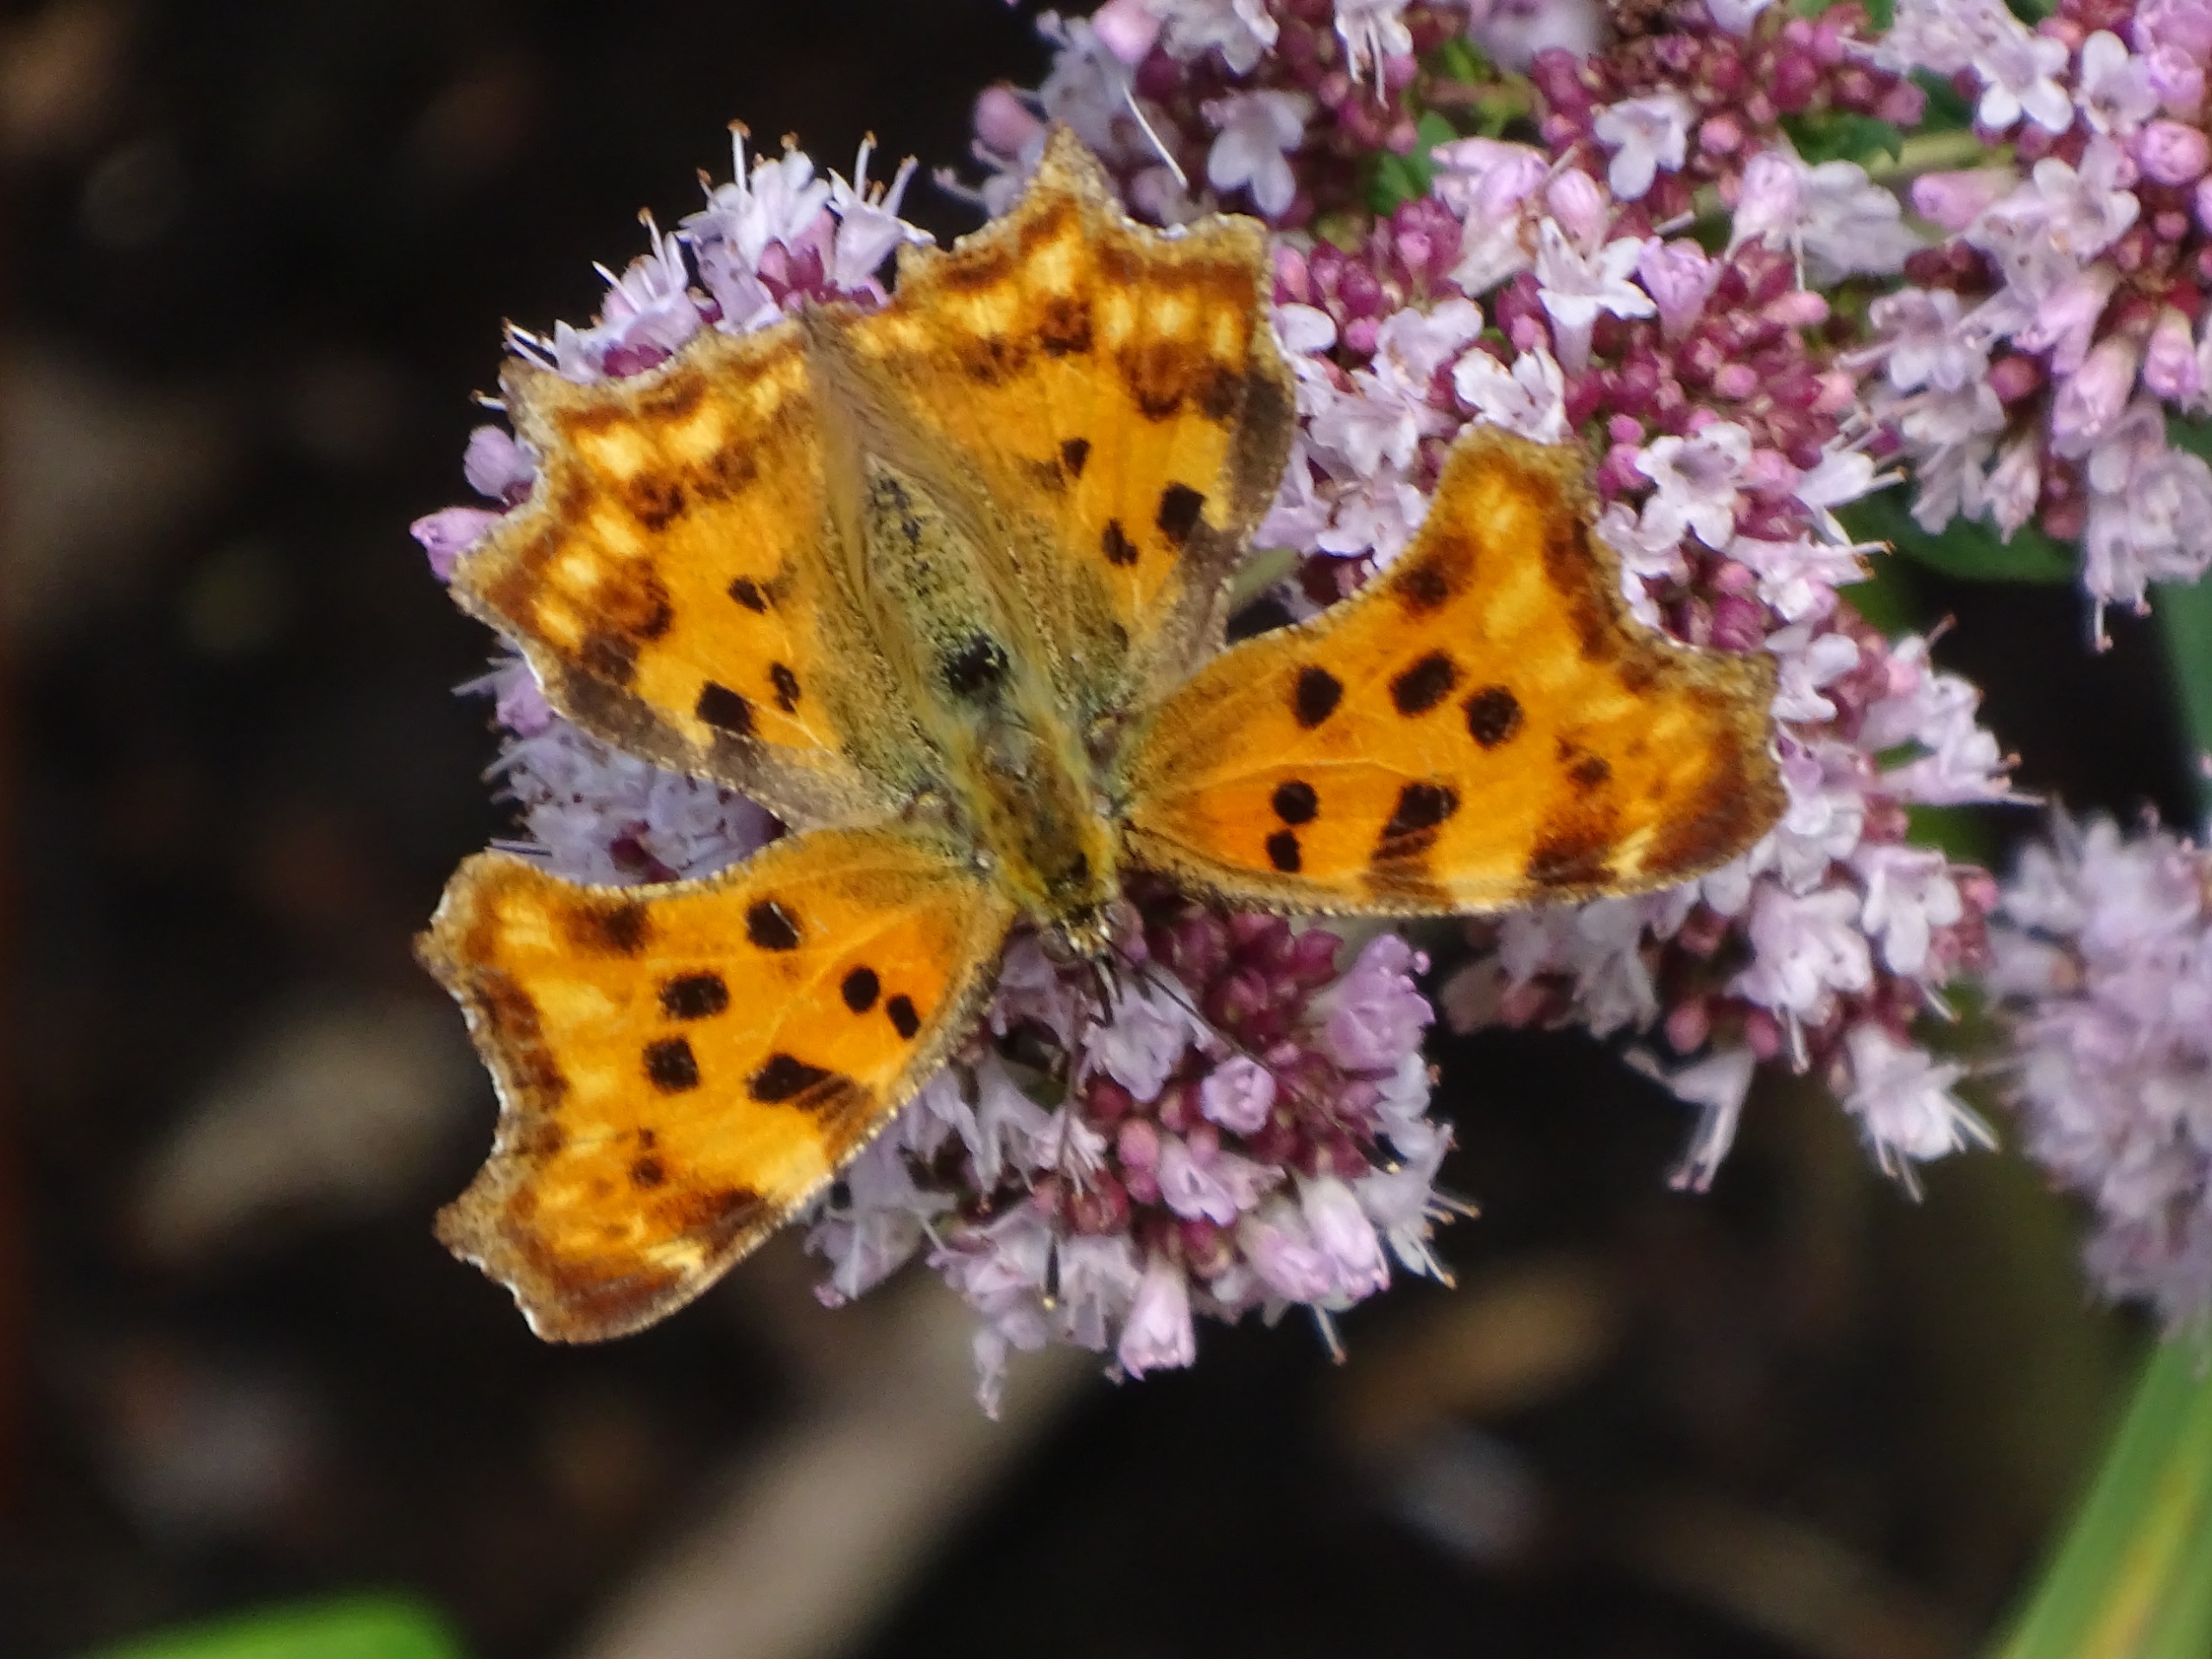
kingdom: Animalia
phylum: Arthropoda
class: Insecta
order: Lepidoptera
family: Nymphalidae
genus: Polygonia
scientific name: Polygonia c-album
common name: Det hvide C
